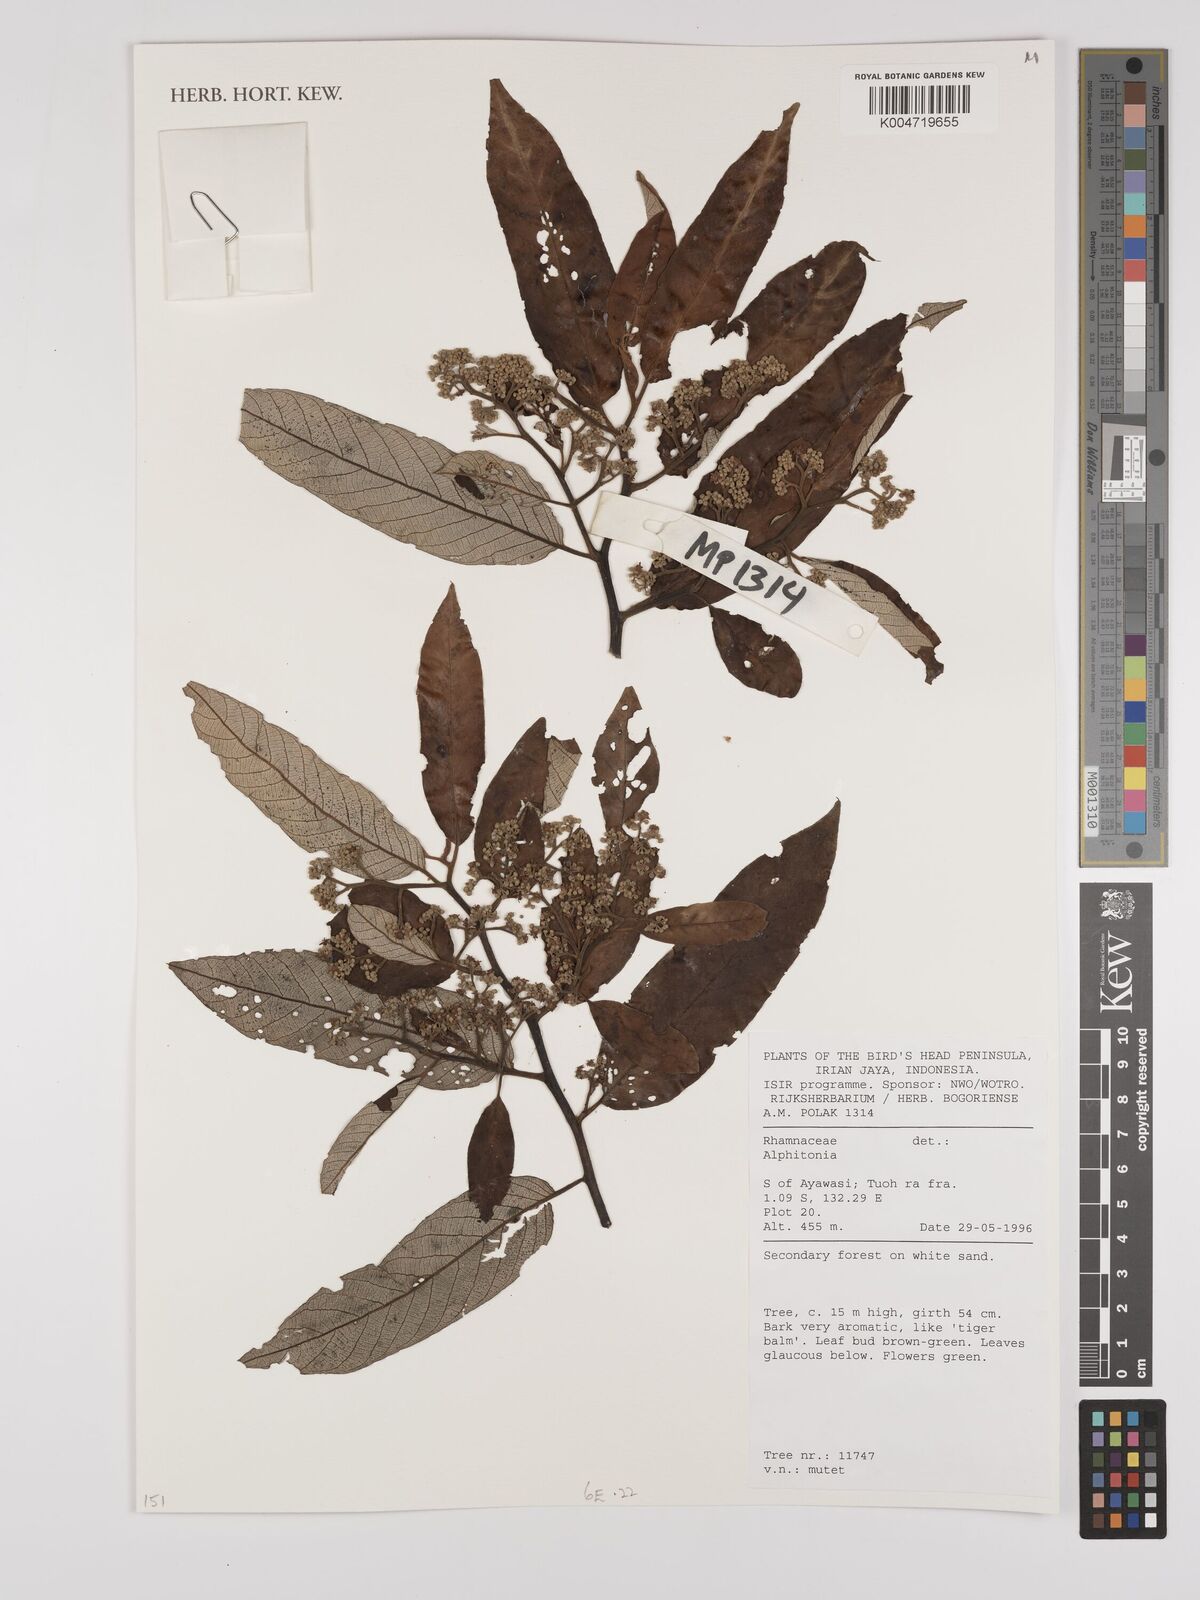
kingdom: Plantae
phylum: Tracheophyta
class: Magnoliopsida
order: Rosales
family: Rhamnaceae
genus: Alphitonia
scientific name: Alphitonia
